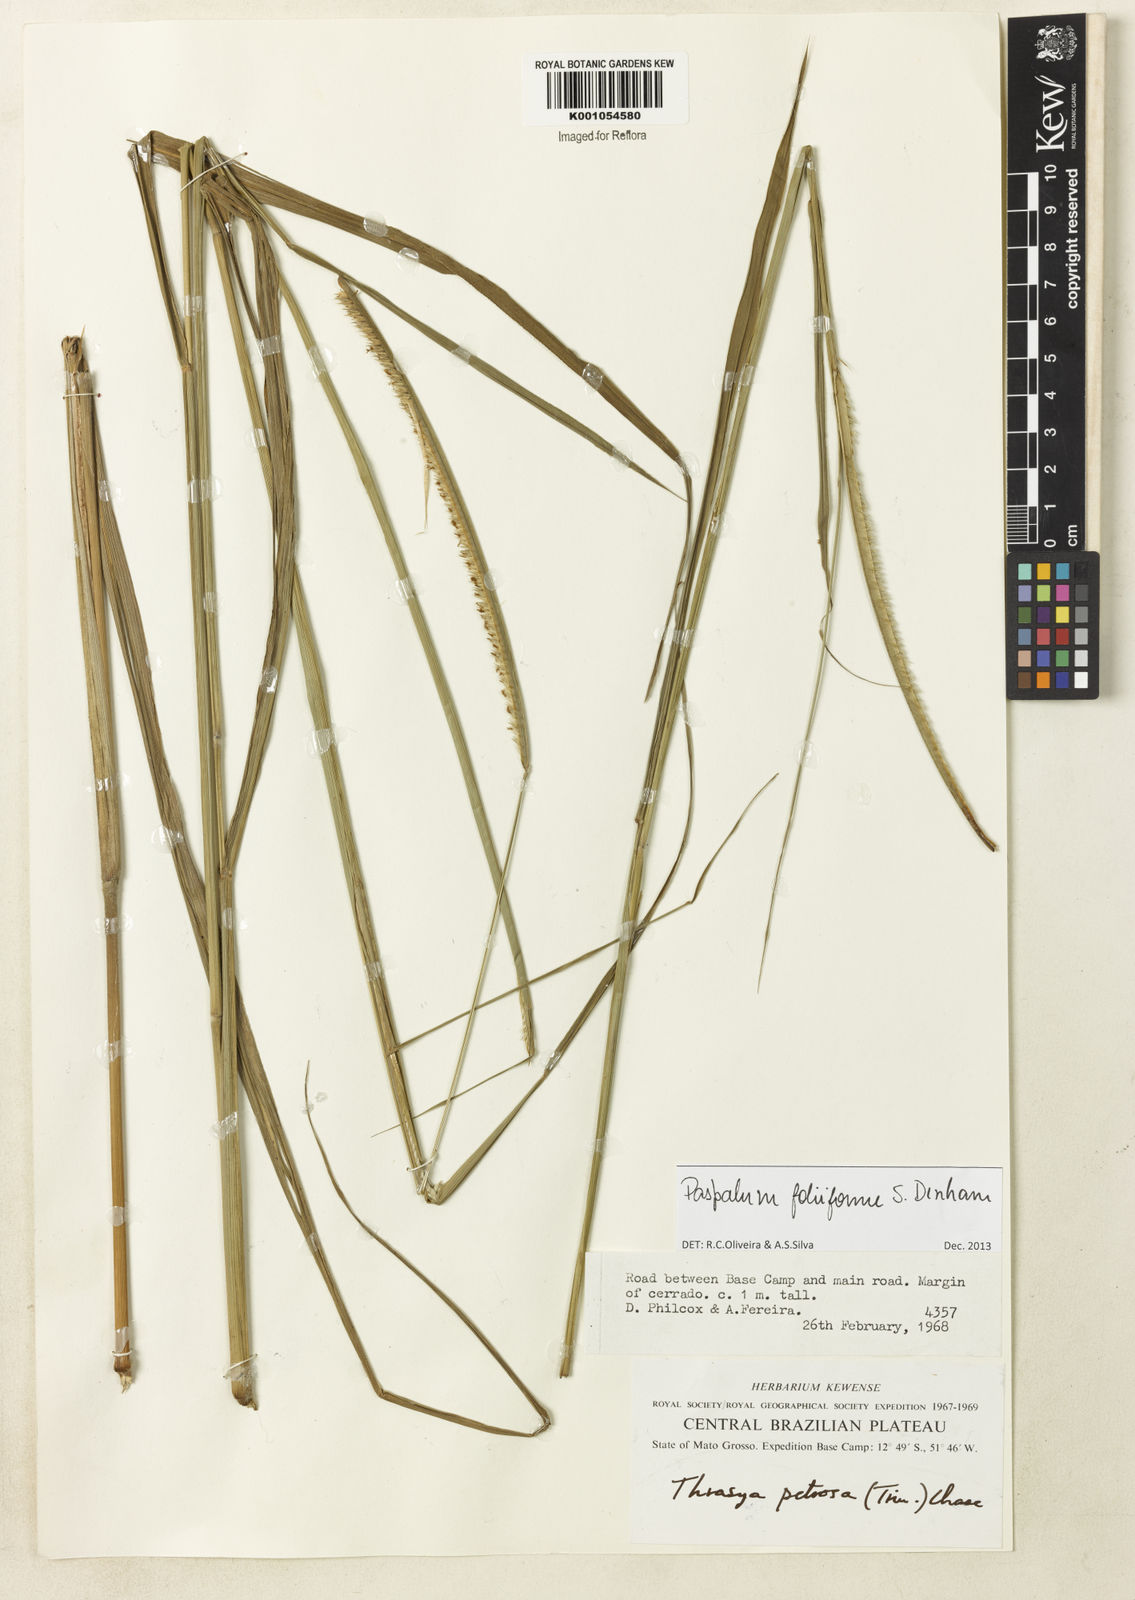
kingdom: Plantae
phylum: Tracheophyta
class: Liliopsida
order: Poales
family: Poaceae
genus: Paspalum
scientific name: Paspalum foliiforme
